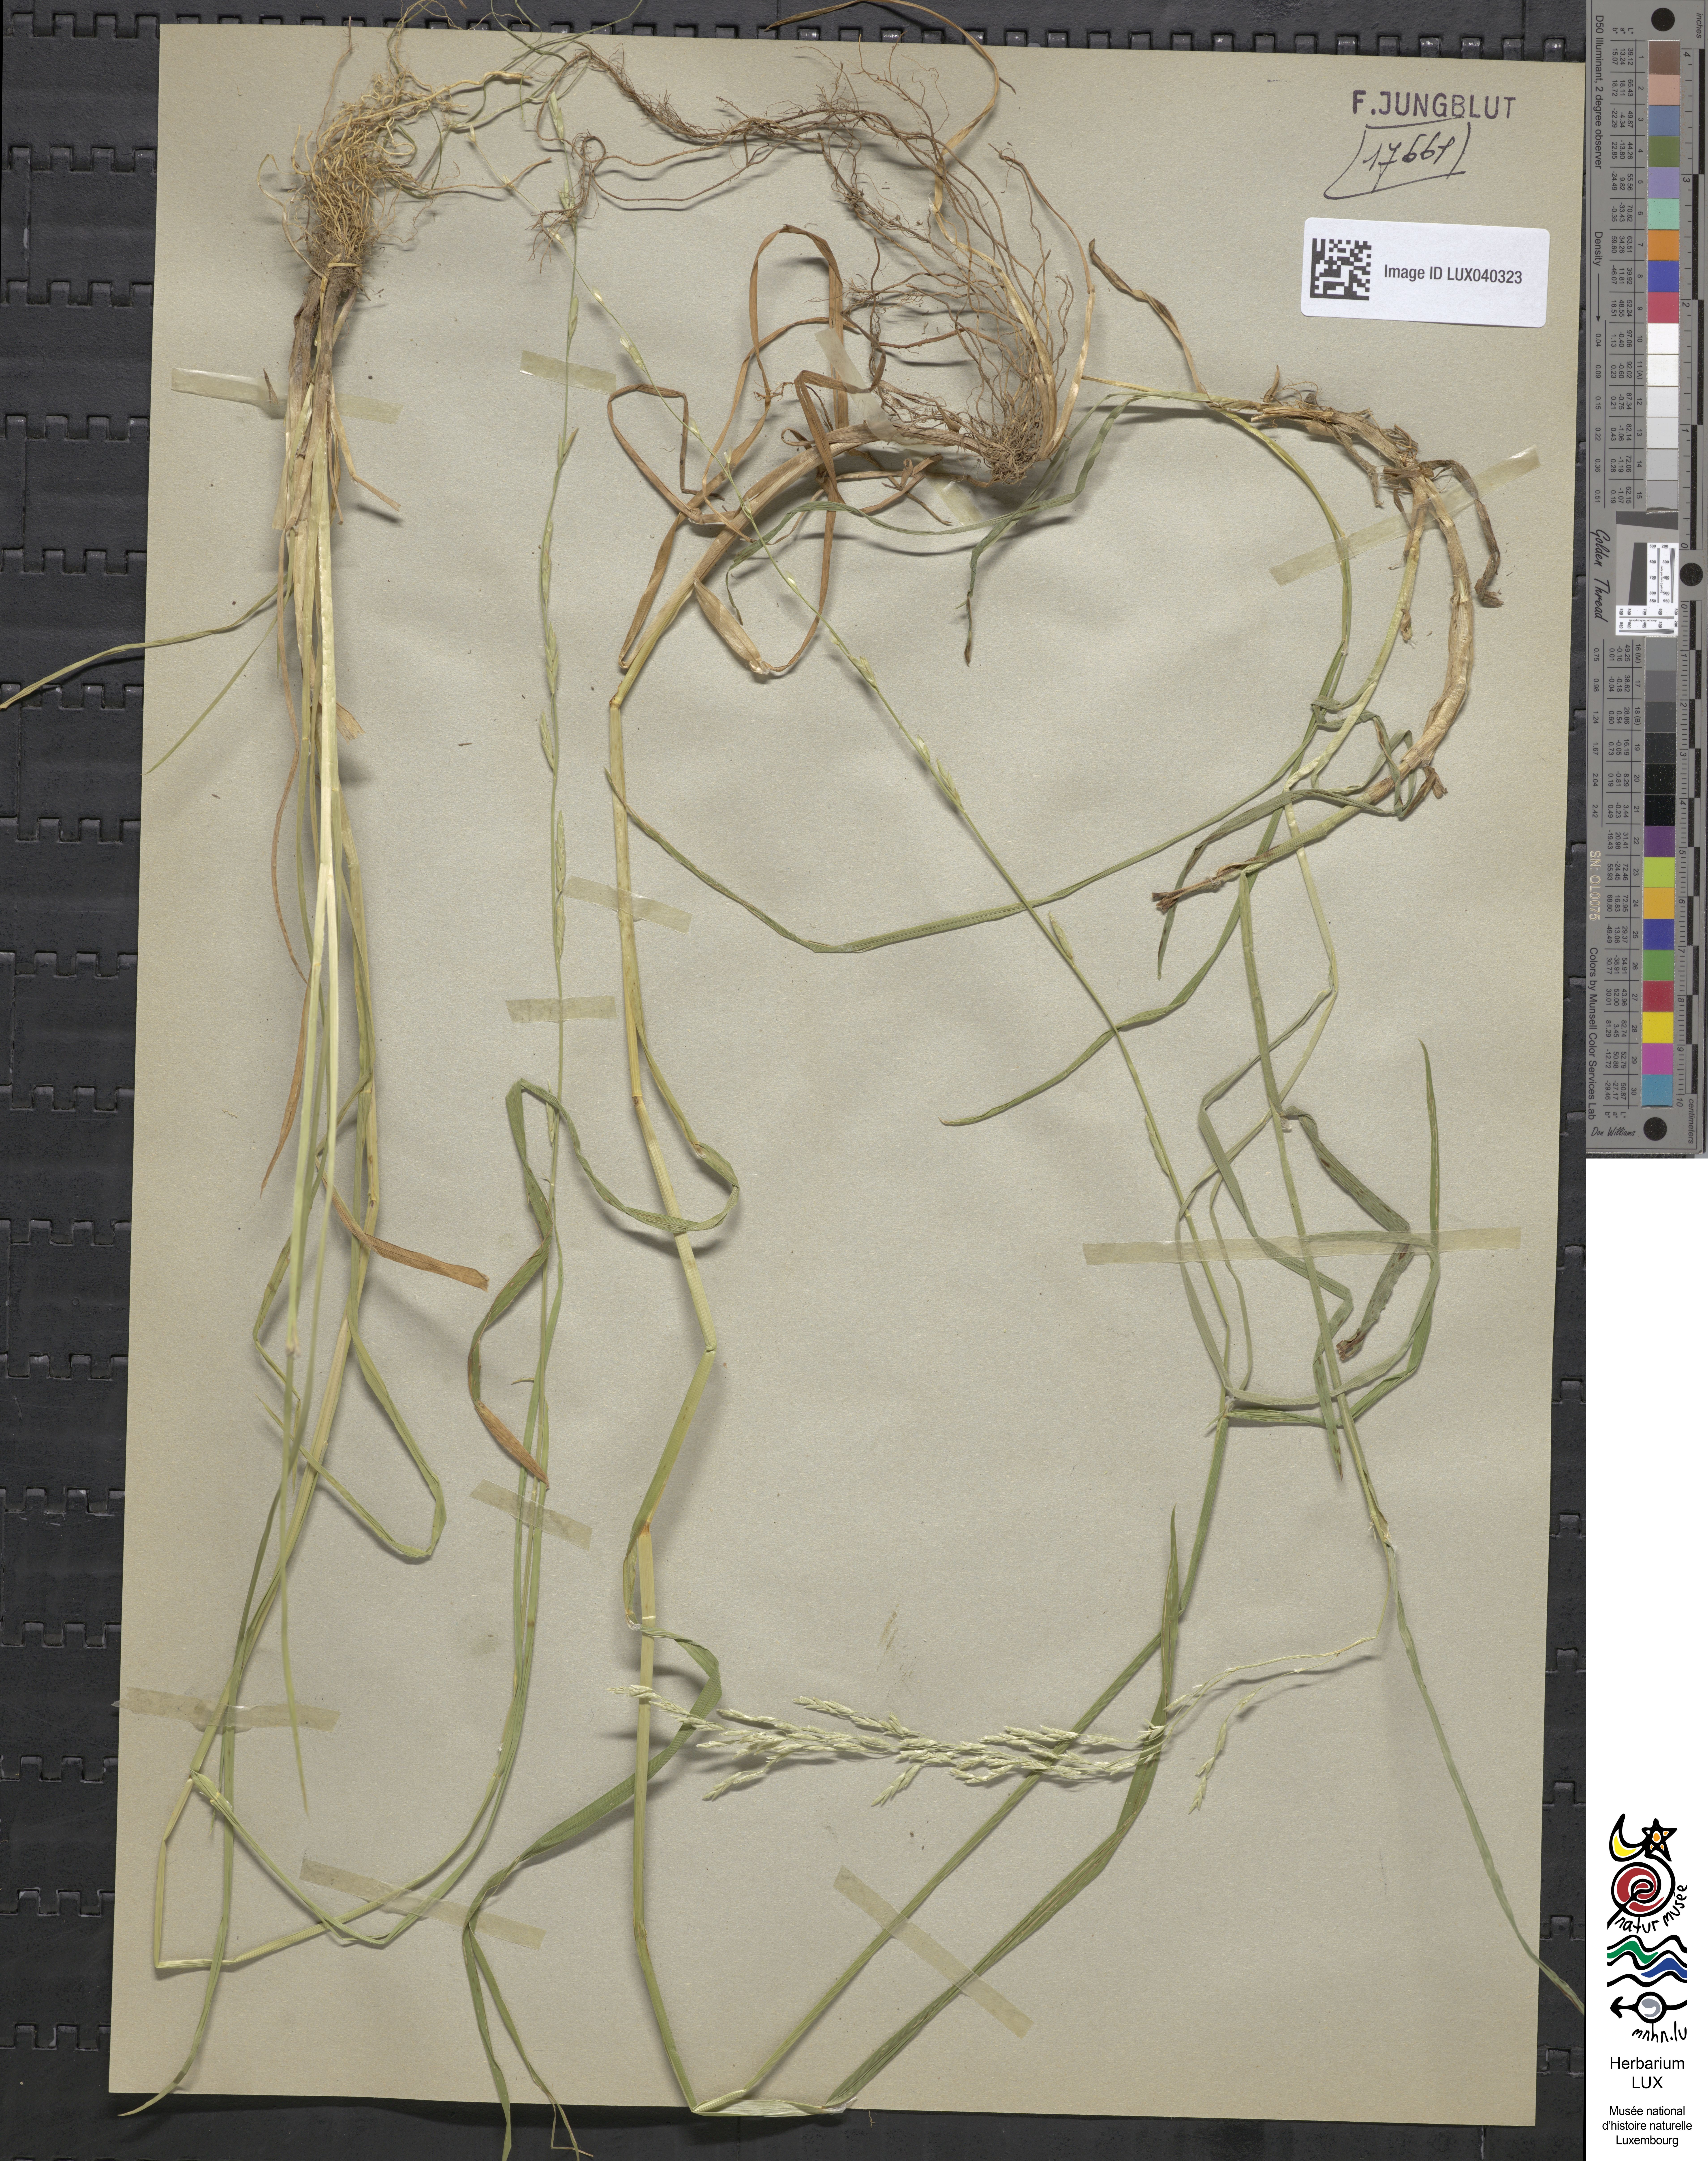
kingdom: Plantae
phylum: Tracheophyta
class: Liliopsida
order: Poales
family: Poaceae
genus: Glyceria
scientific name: Glyceria notata
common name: Plicate sweet-grass
